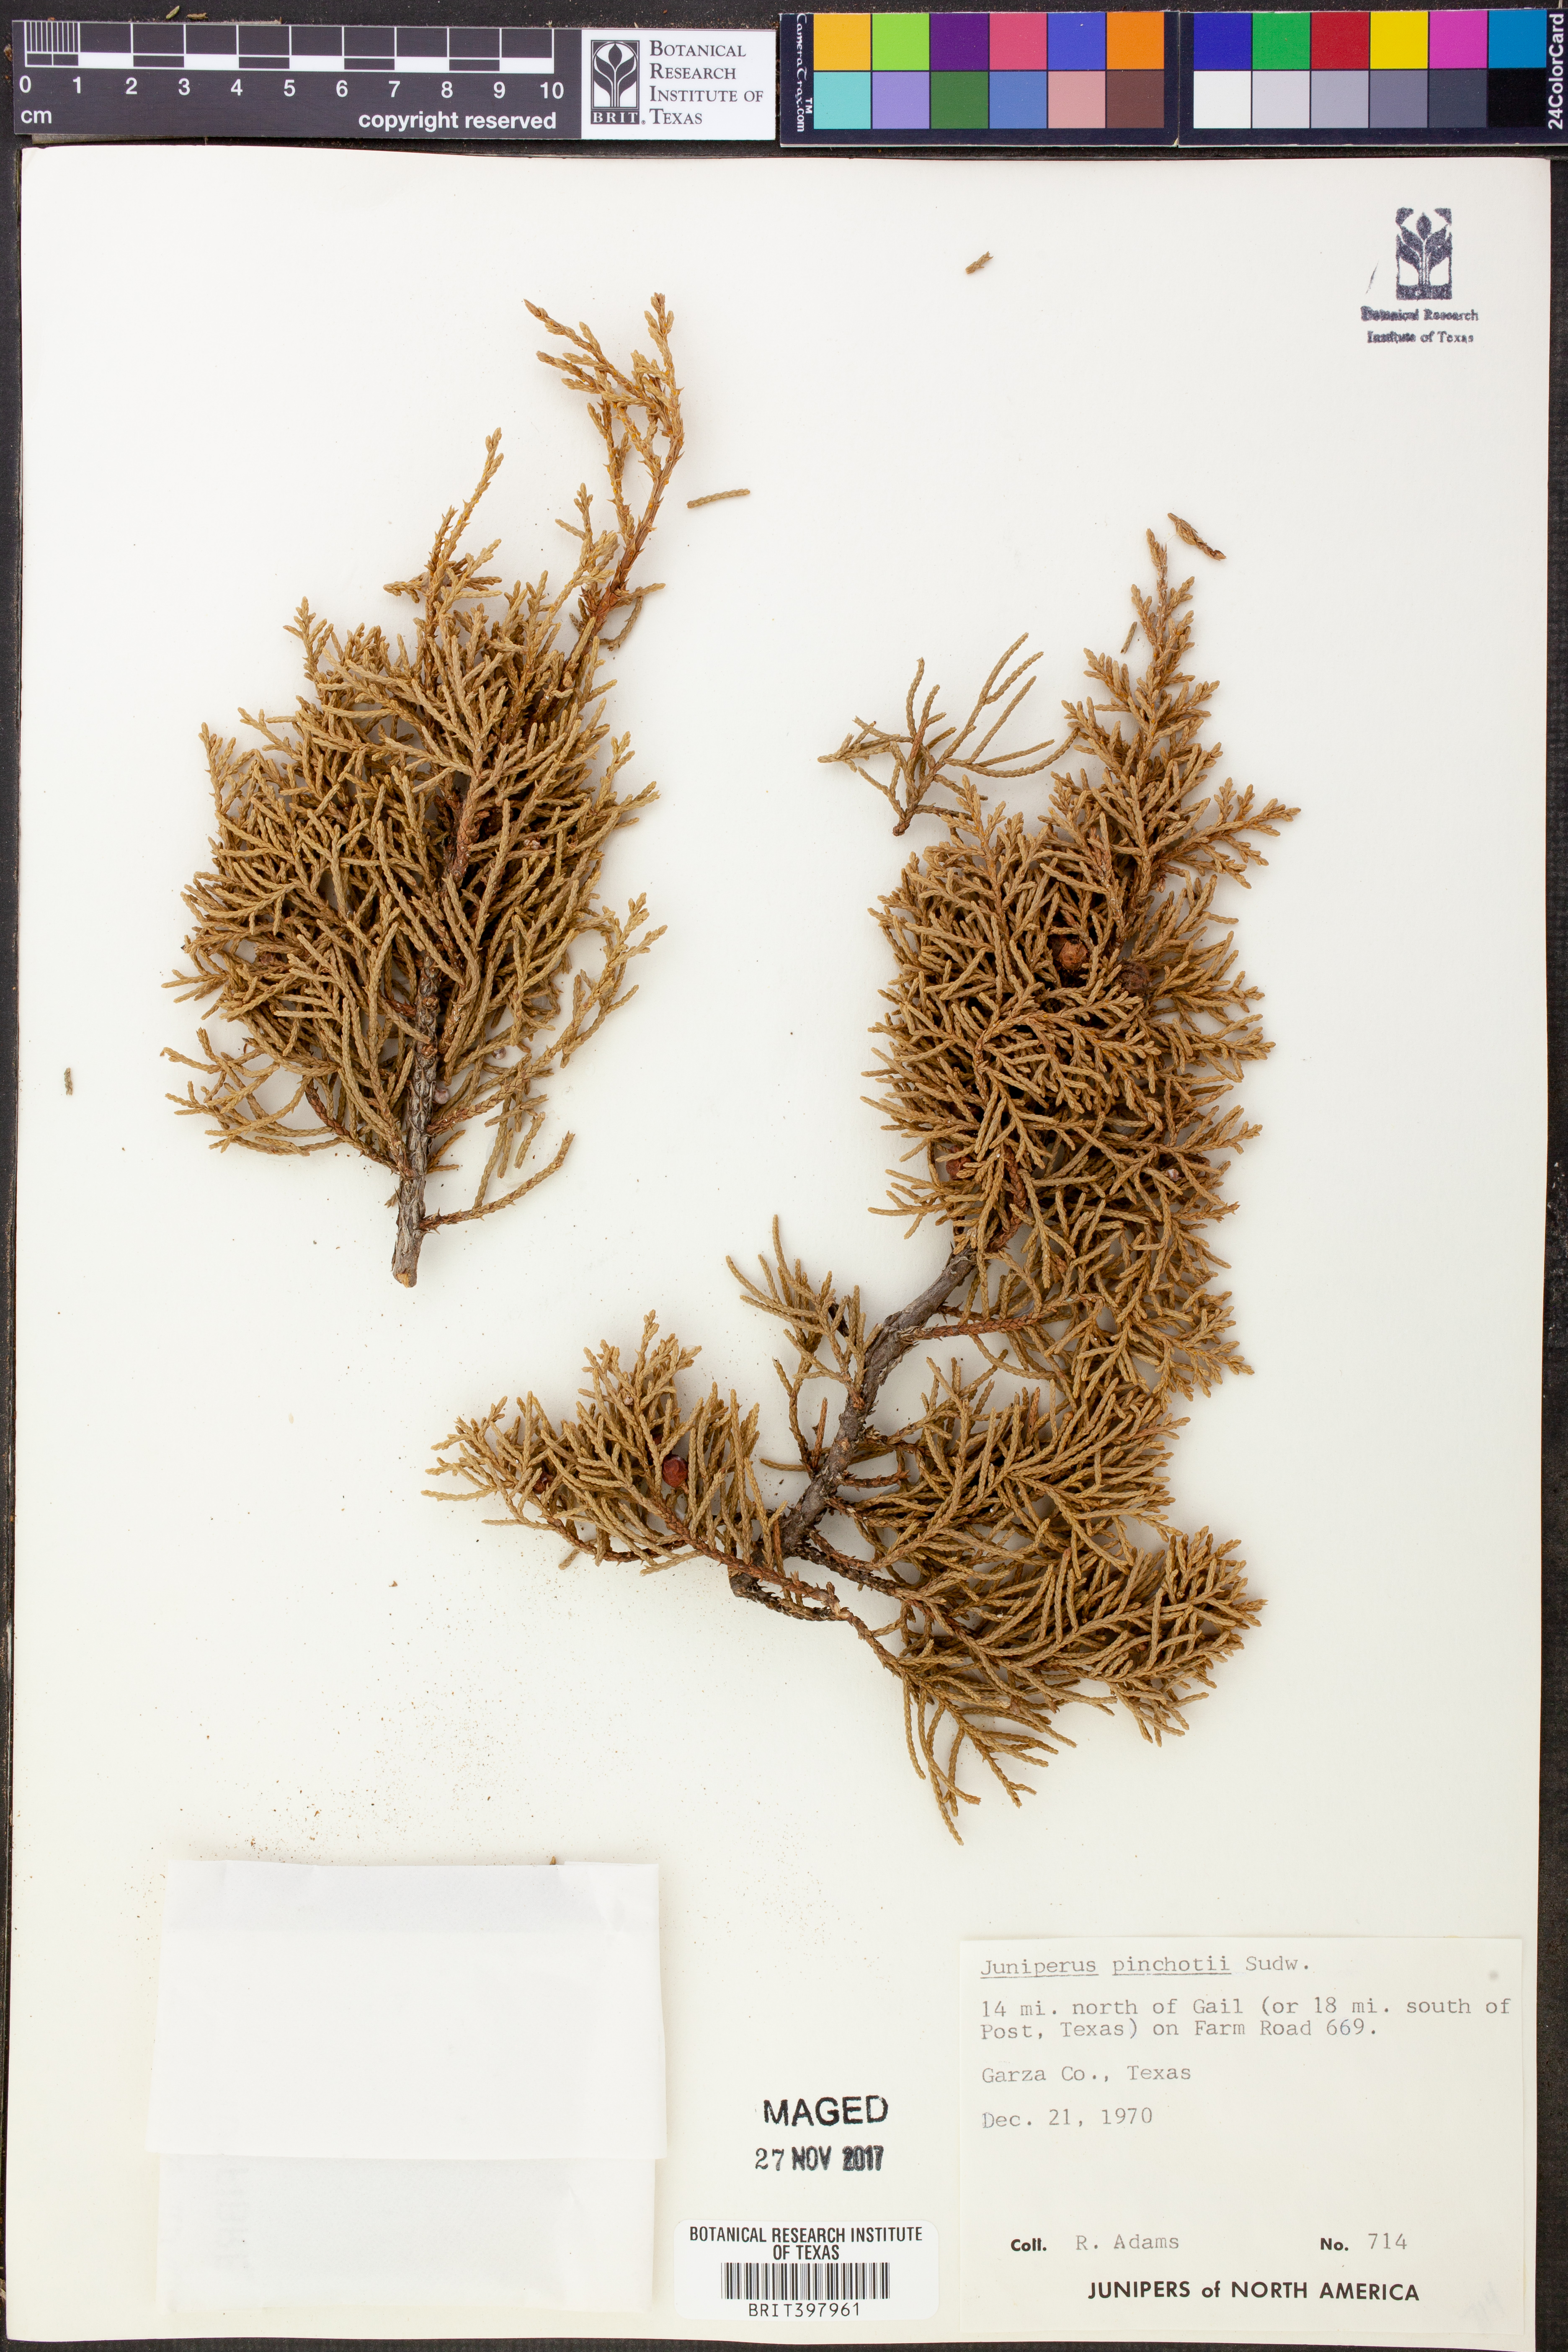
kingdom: Plantae
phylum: Tracheophyta
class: Pinopsida
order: Pinales
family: Cupressaceae
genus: Juniperus
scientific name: Juniperus pinchotii
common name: Pinchot juniper
